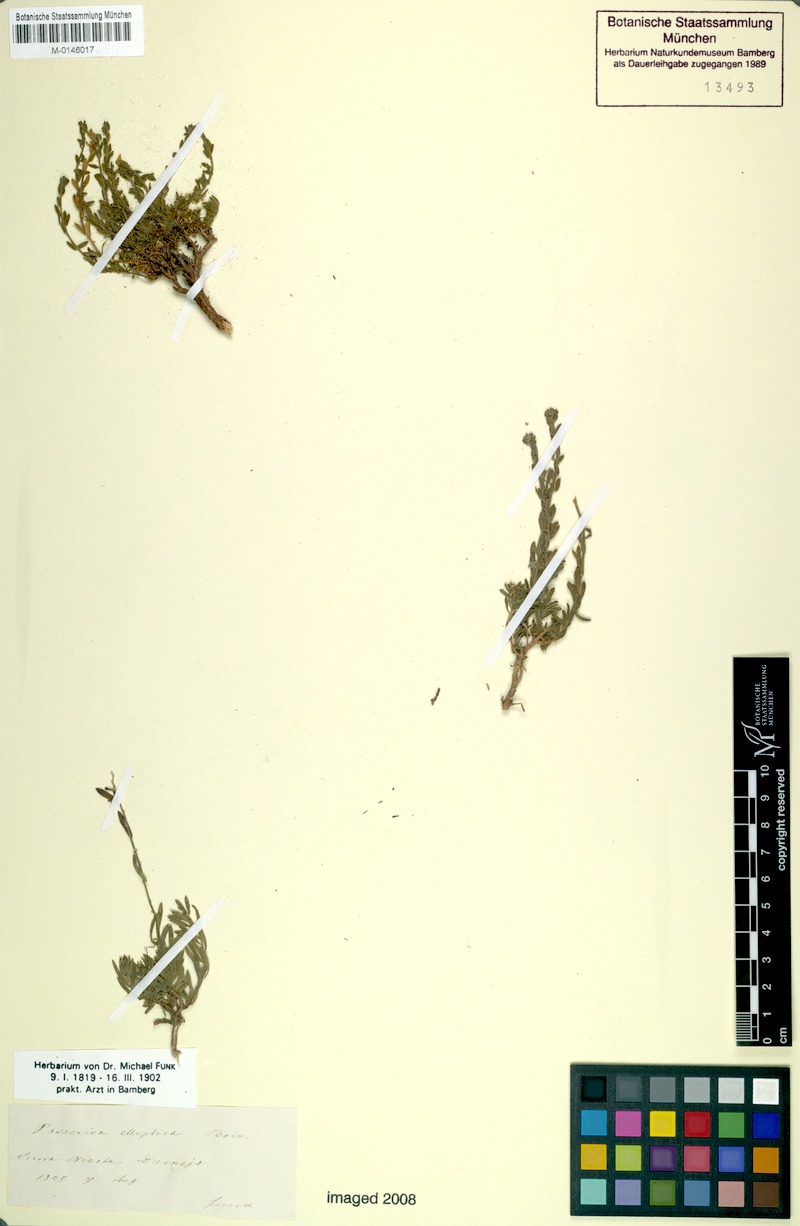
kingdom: Plantae
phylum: Tracheophyta
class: Magnoliopsida
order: Malvales
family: Thymelaeaceae
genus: Thymelaea
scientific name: Thymelaea pubescens
